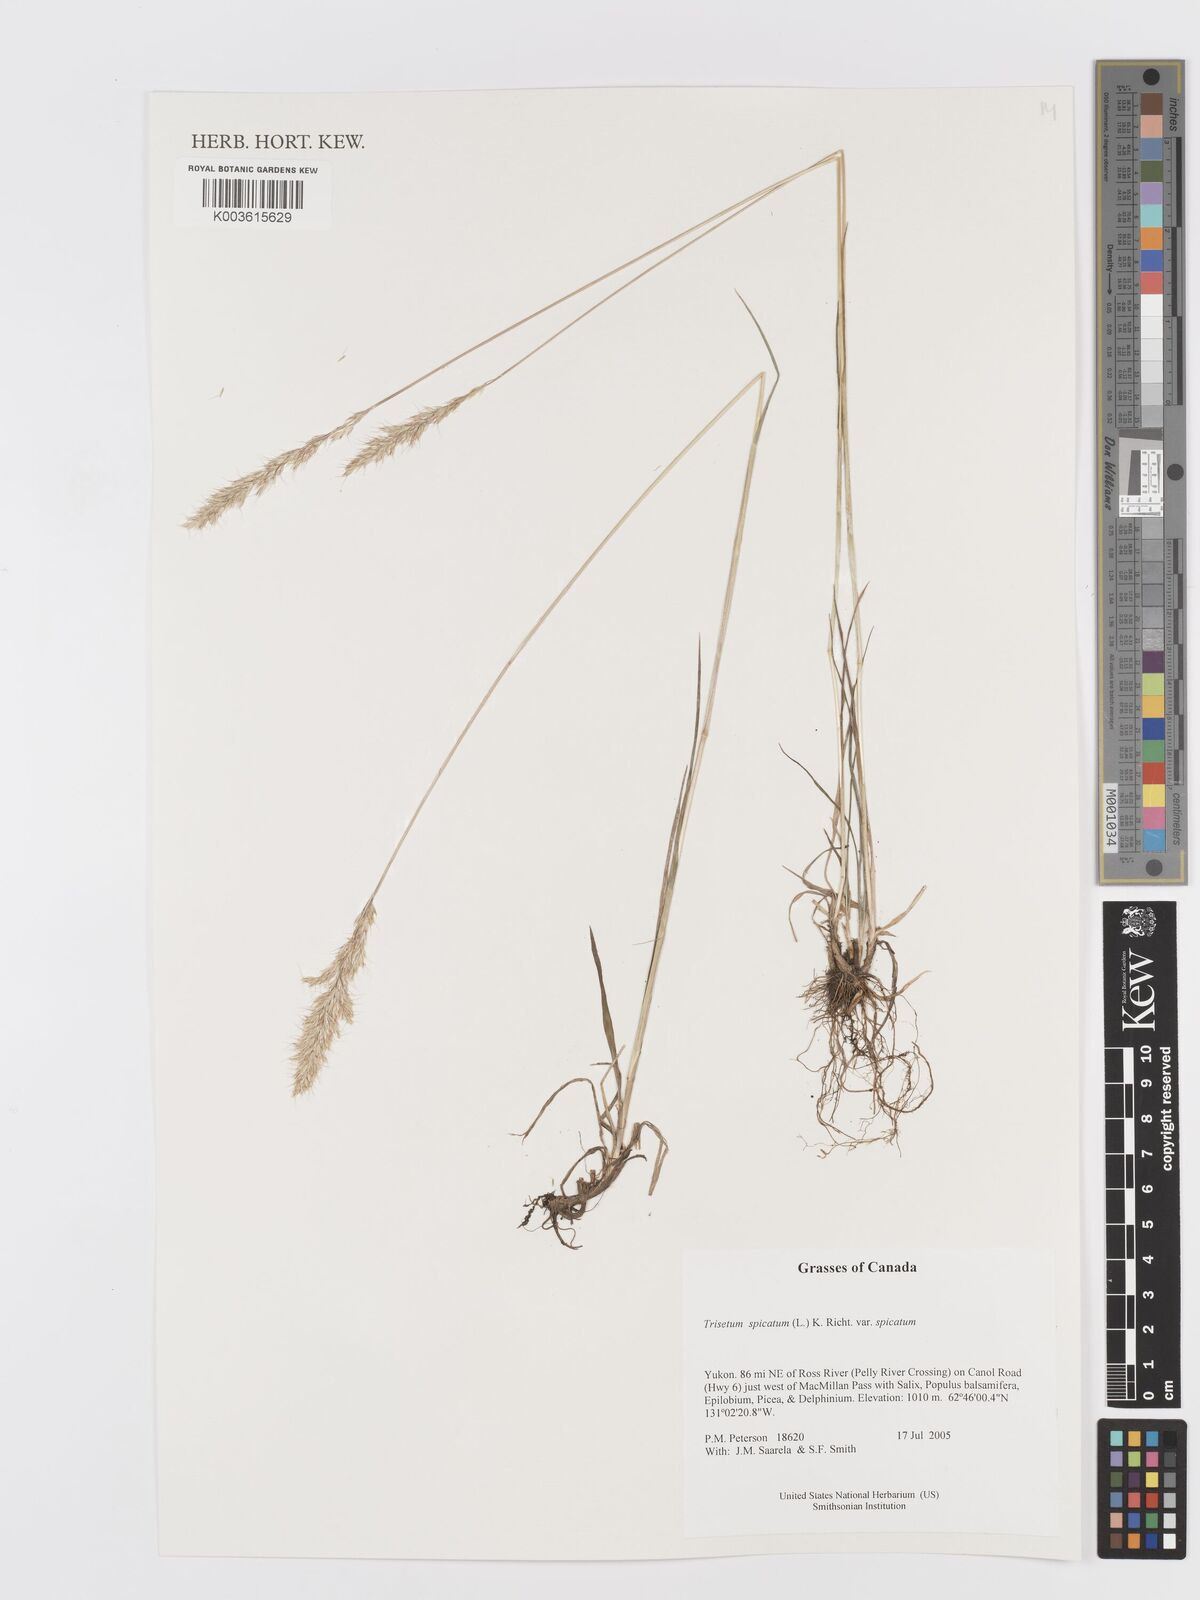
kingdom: Plantae
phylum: Tracheophyta
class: Liliopsida
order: Poales
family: Poaceae
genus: Koeleria
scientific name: Koeleria spicata
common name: Mountain trisetum
